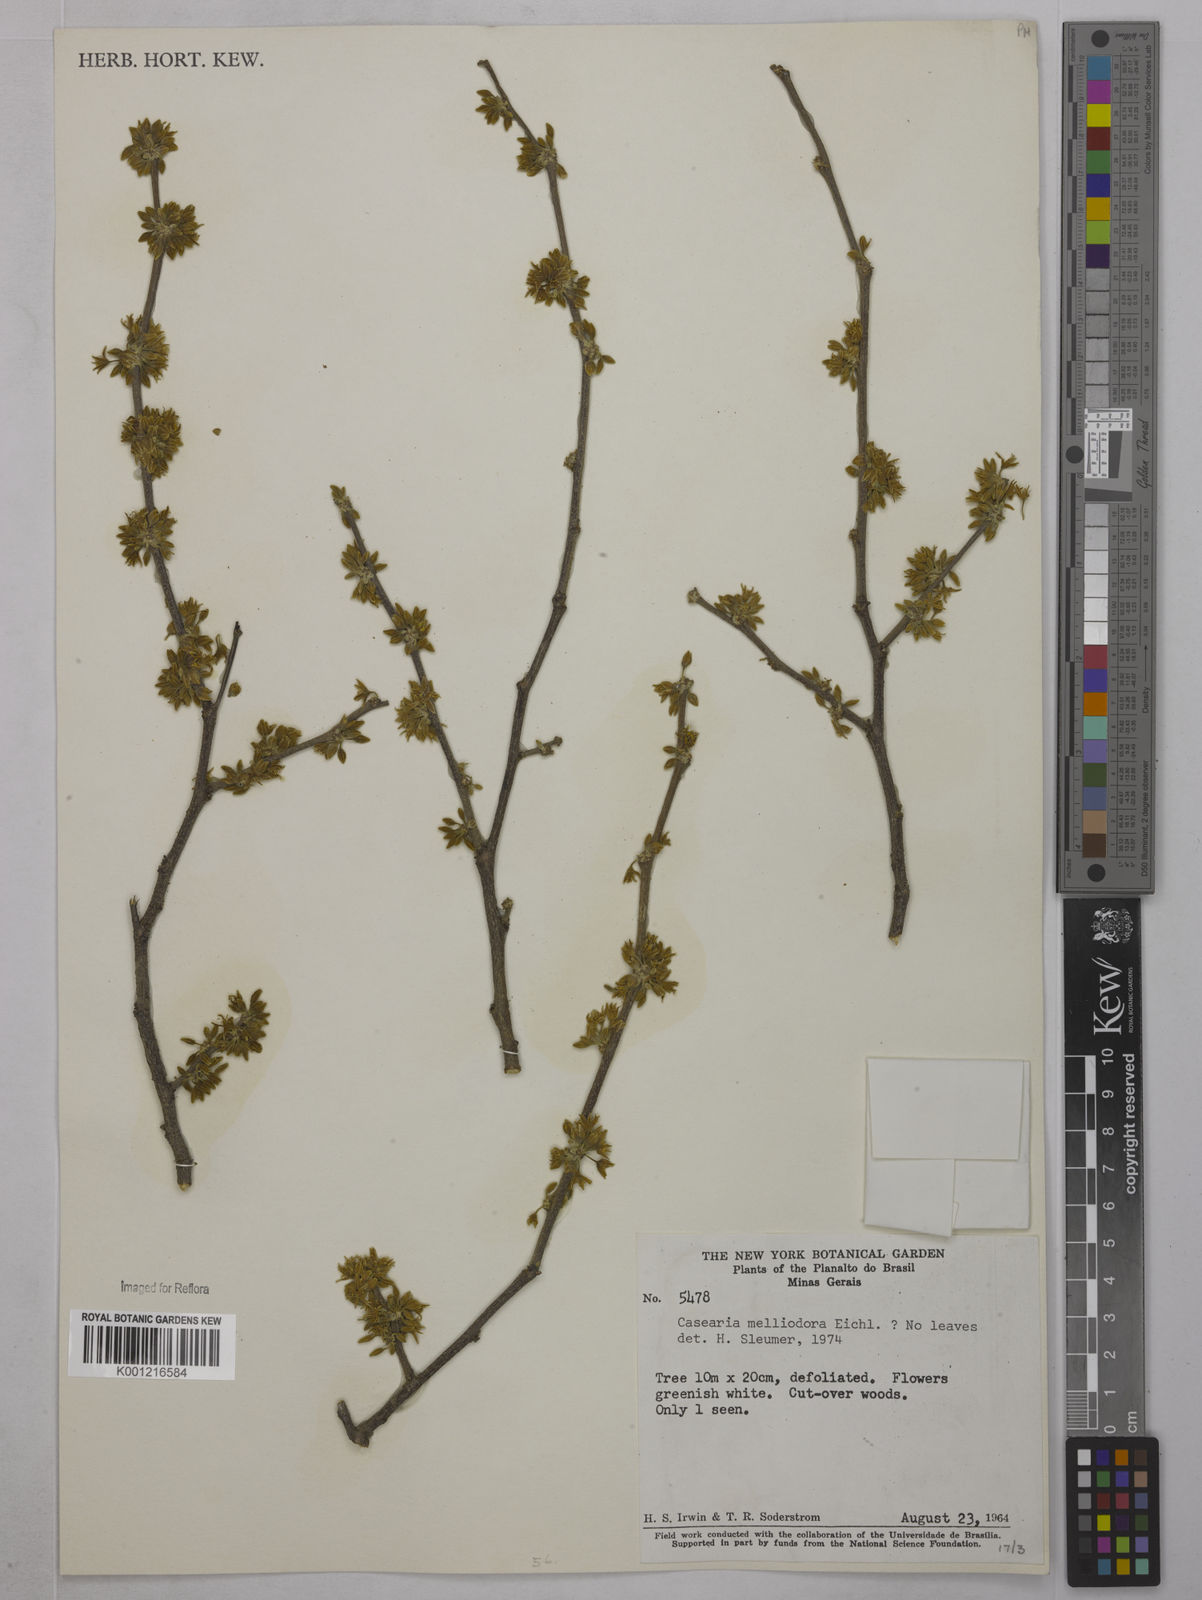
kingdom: Plantae
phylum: Tracheophyta
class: Magnoliopsida
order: Malpighiales
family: Salicaceae
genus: Casearia
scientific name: Casearia melliodora
